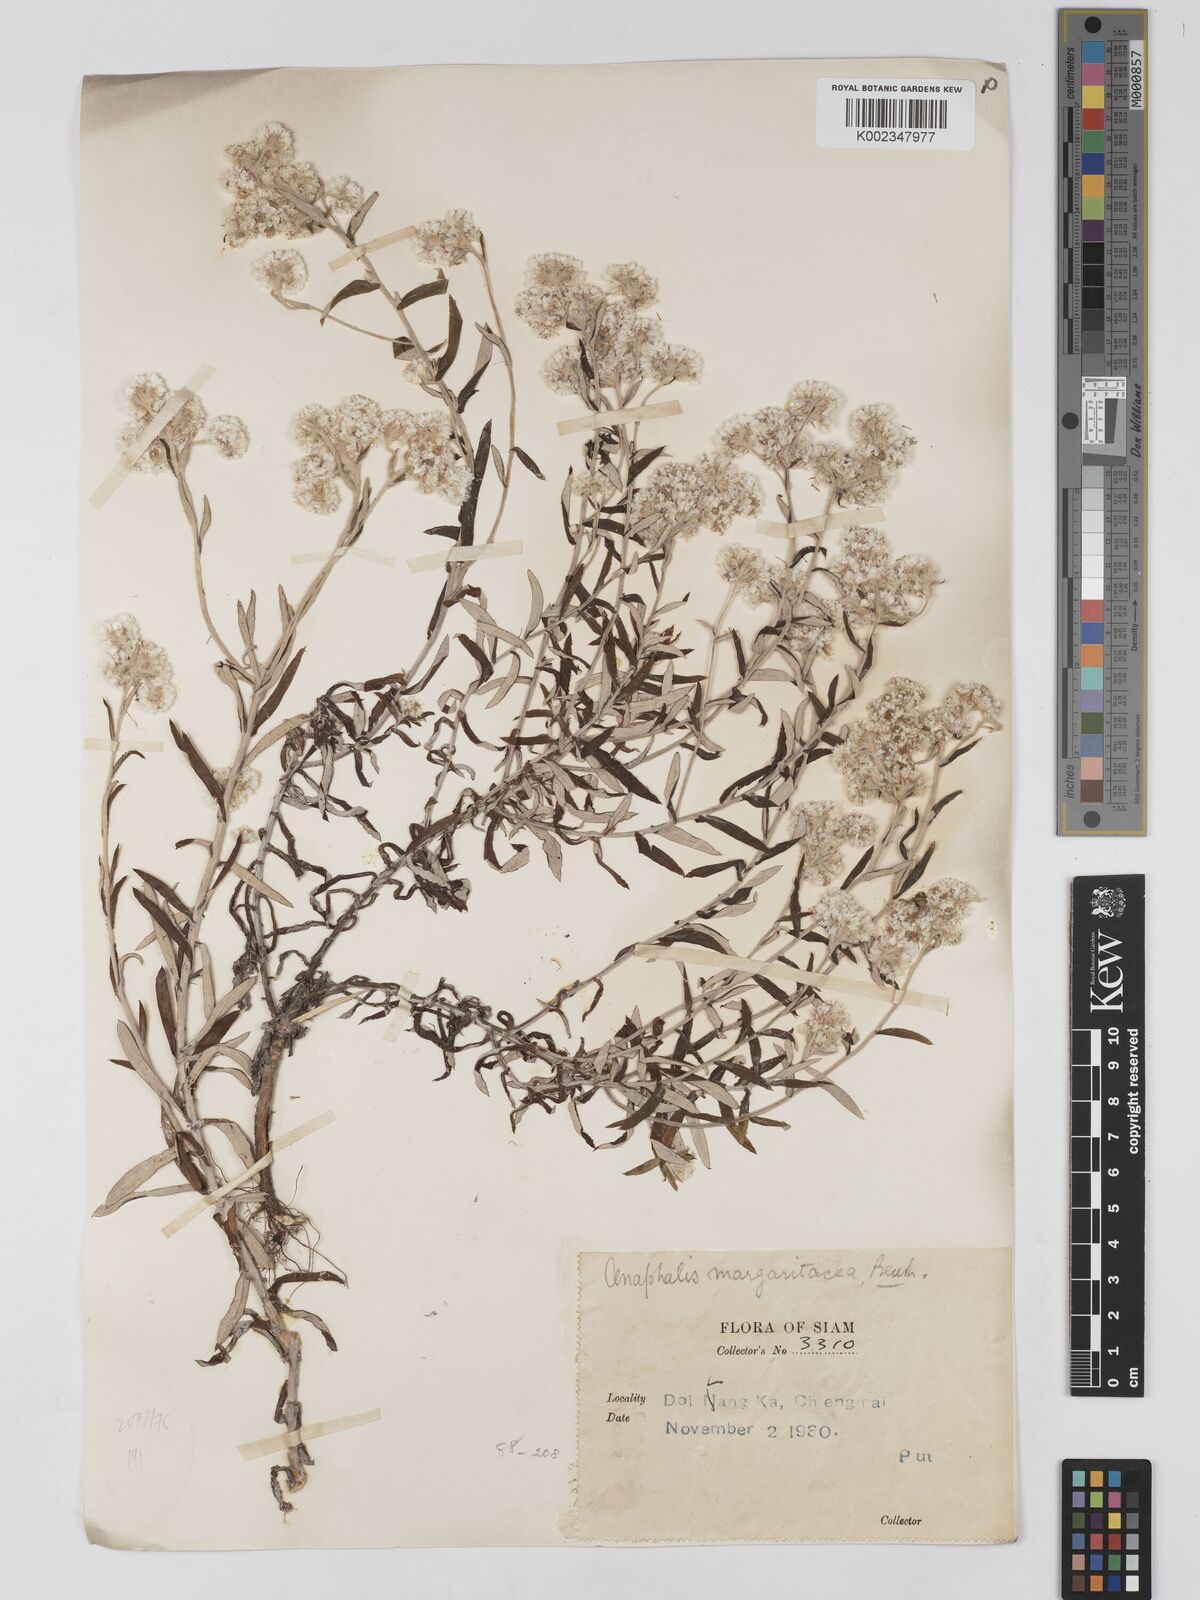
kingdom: Plantae
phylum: Tracheophyta
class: Magnoliopsida
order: Asterales
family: Asteraceae
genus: Anaphalis
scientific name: Anaphalis margaritacea
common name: Pearly everlasting
